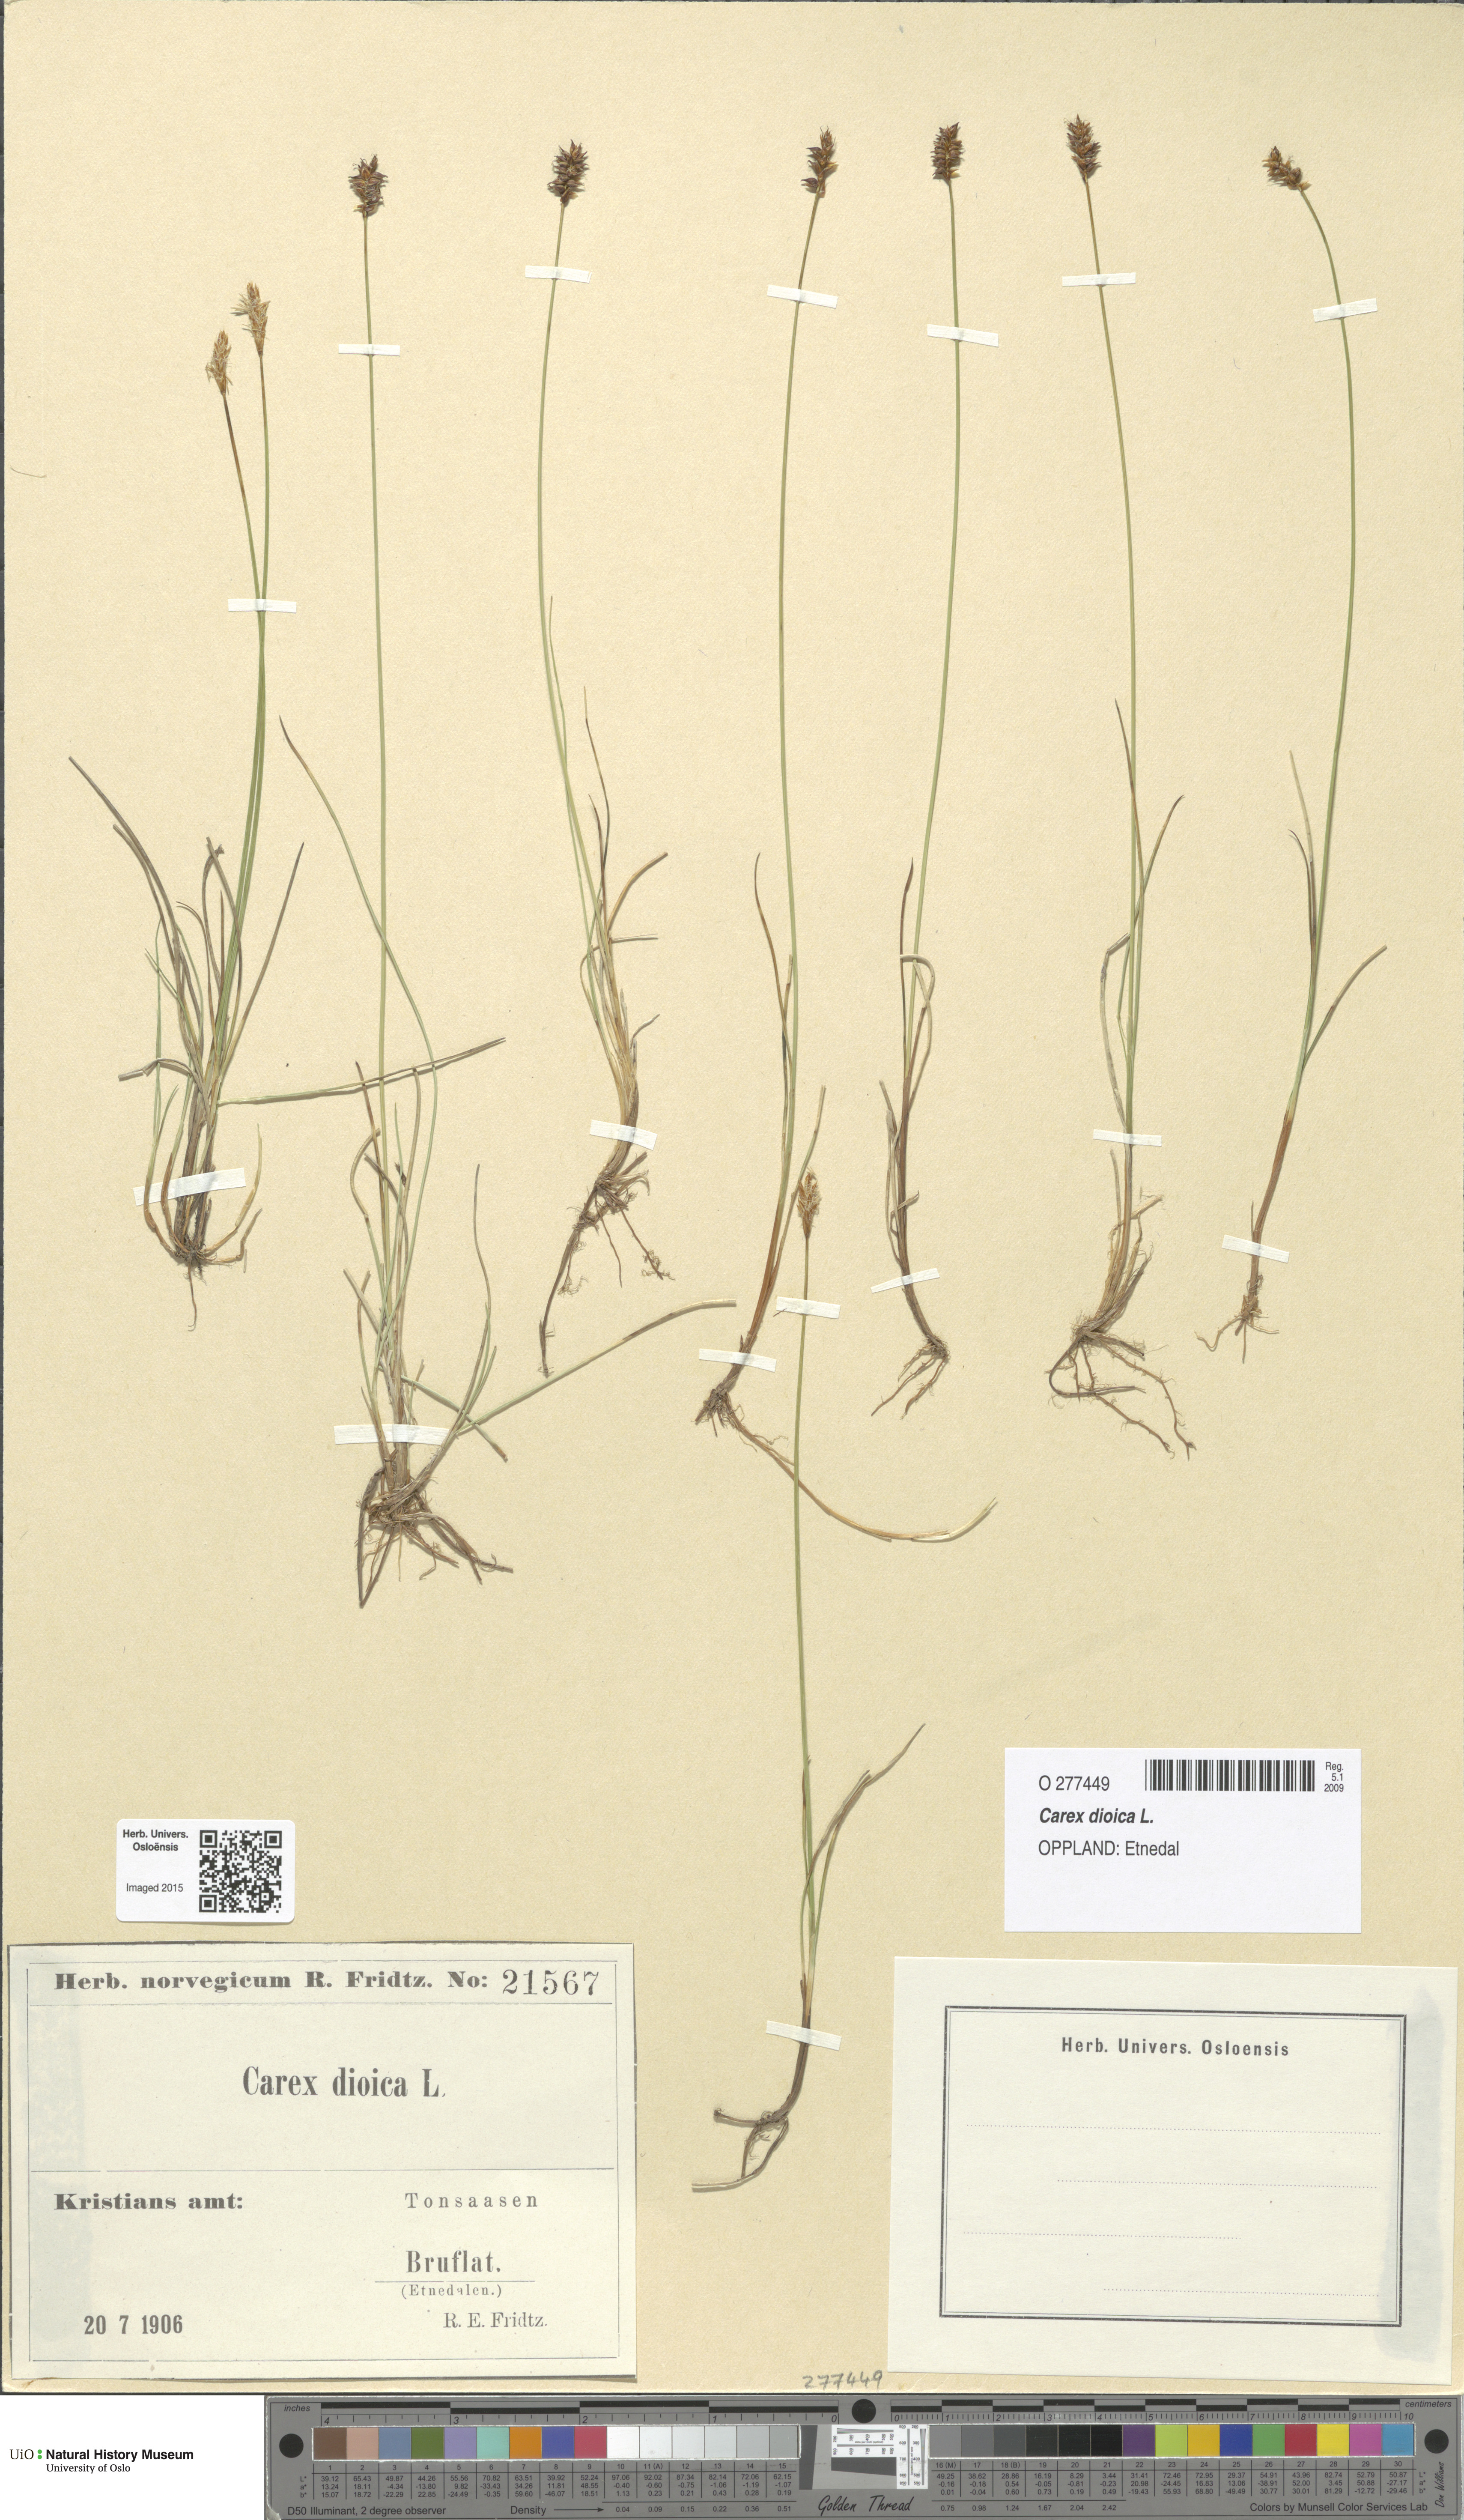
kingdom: Plantae
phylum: Tracheophyta
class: Liliopsida
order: Poales
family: Cyperaceae
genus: Carex
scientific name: Carex dioica
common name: Dioecious sedge
